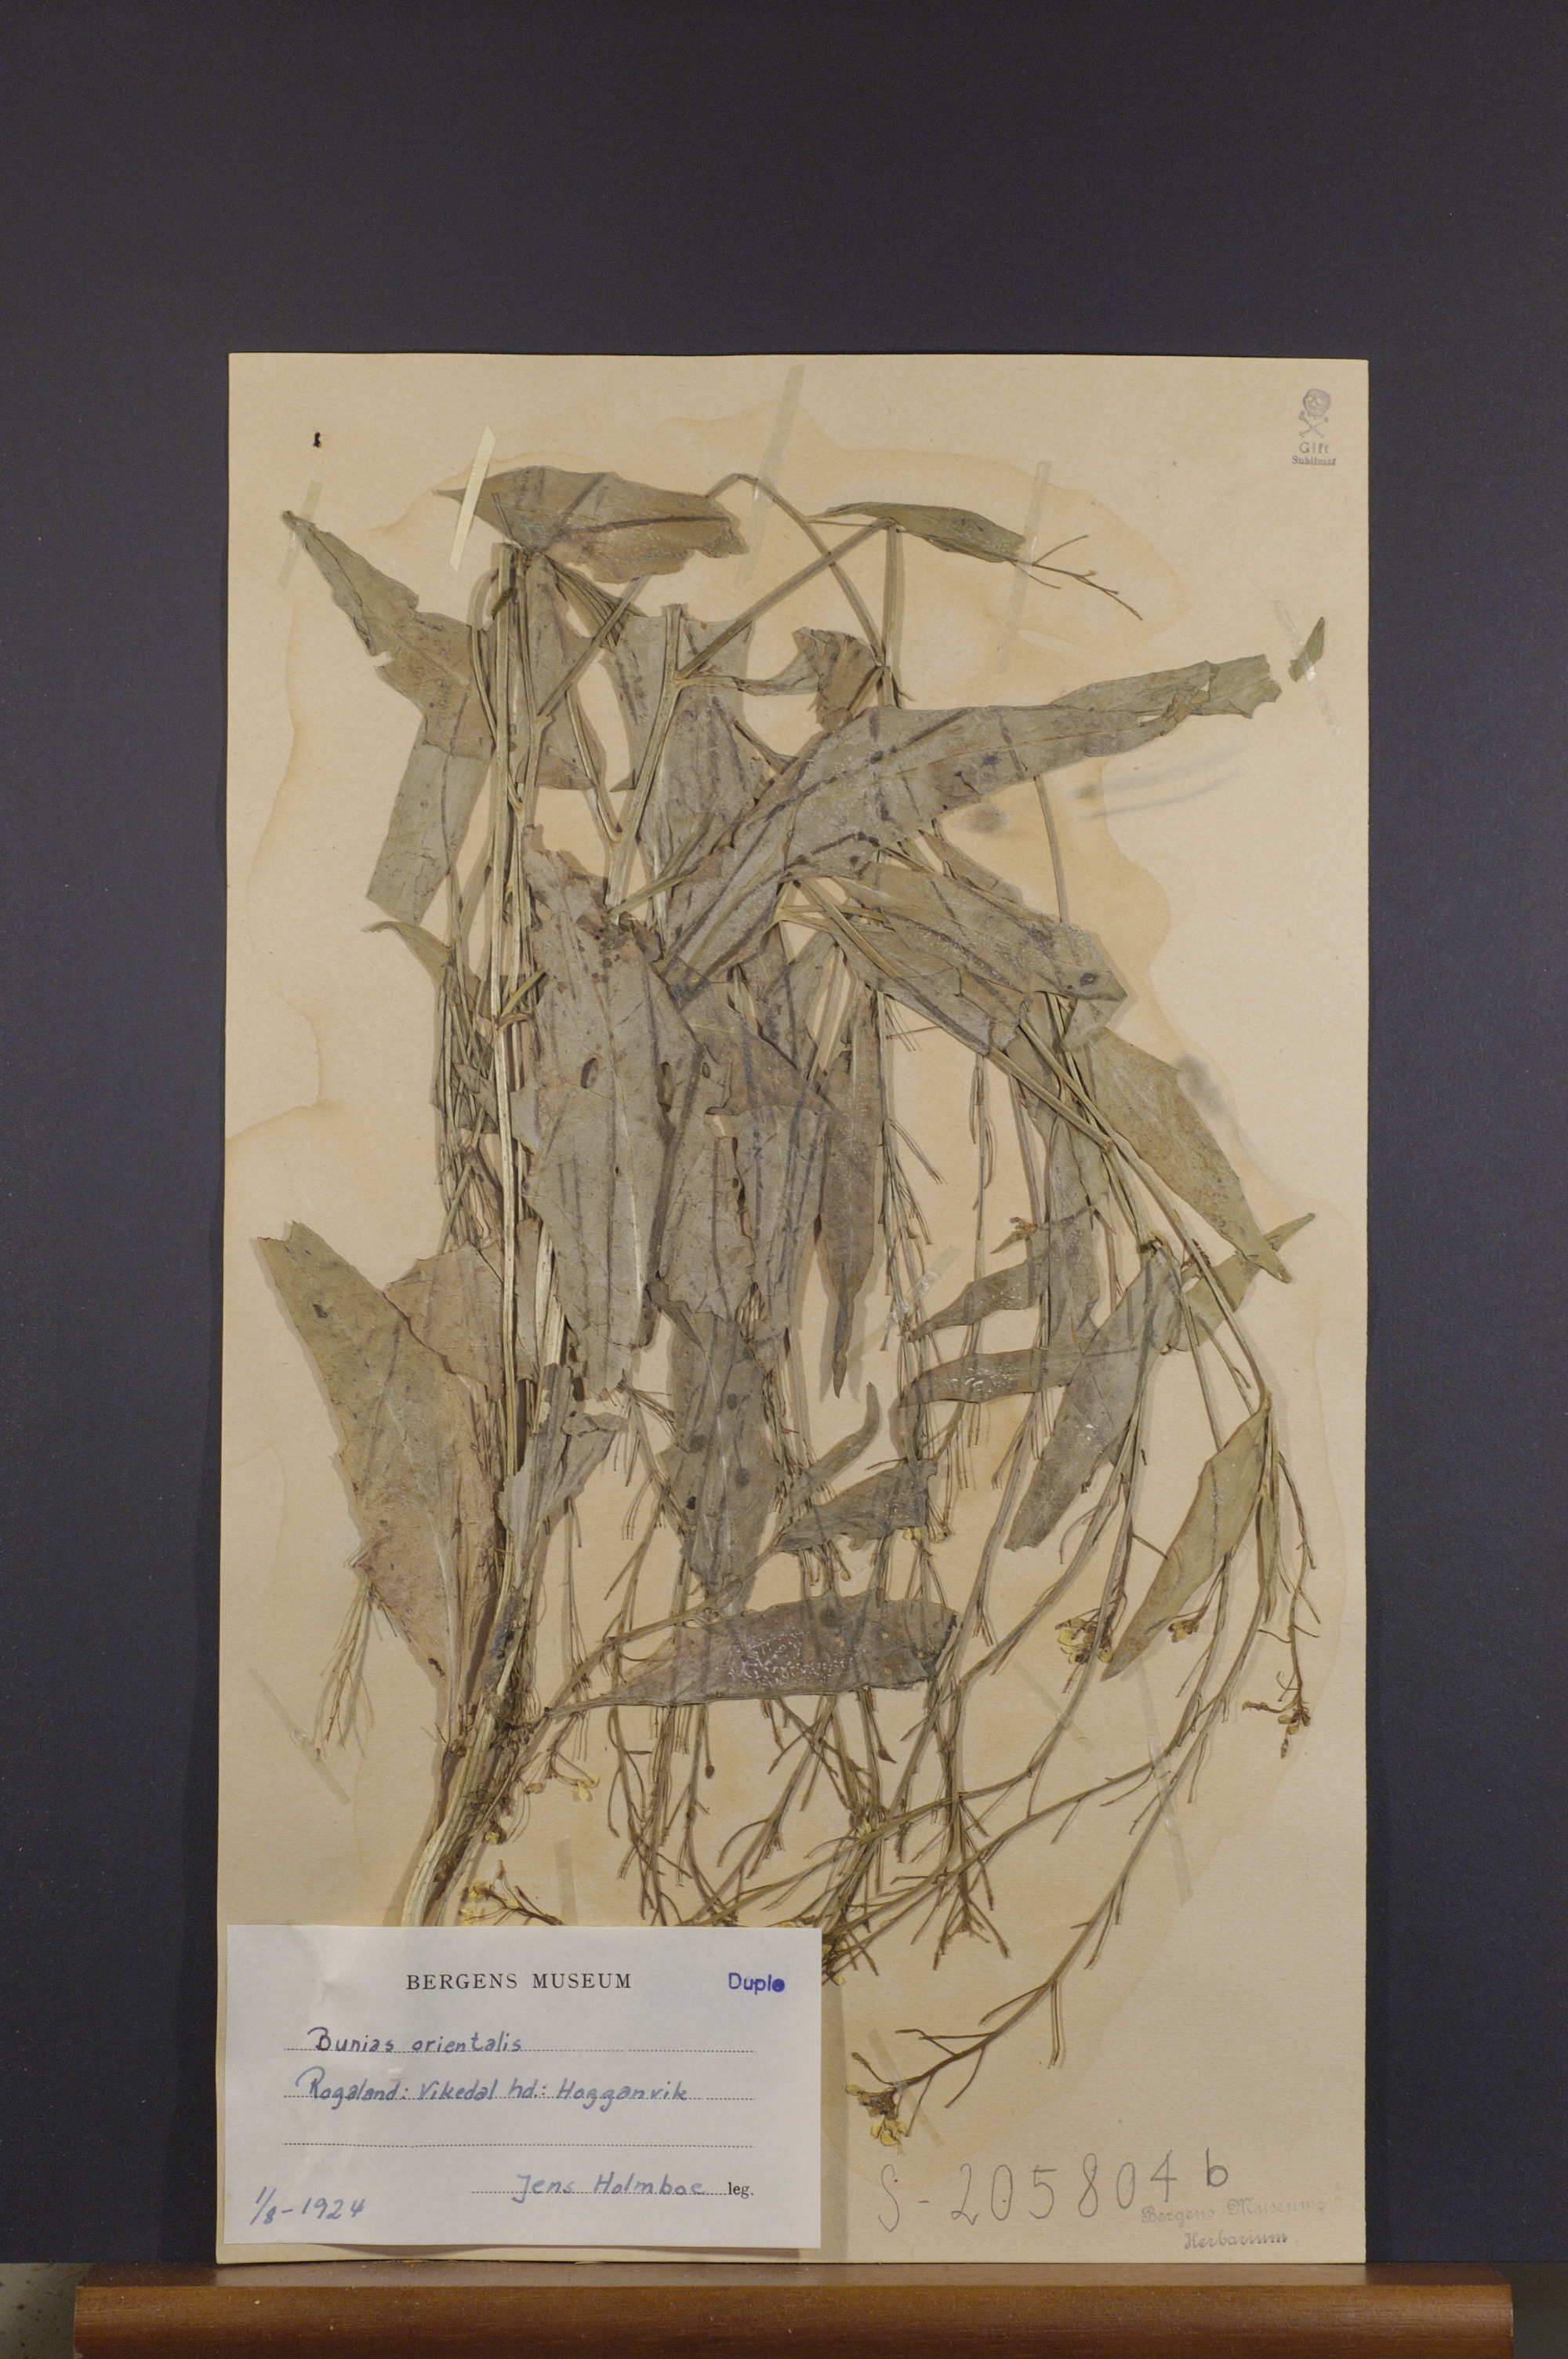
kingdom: Plantae
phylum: Tracheophyta
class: Magnoliopsida
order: Brassicales
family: Brassicaceae
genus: Bunias
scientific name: Bunias orientalis
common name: Warty-cabbage
